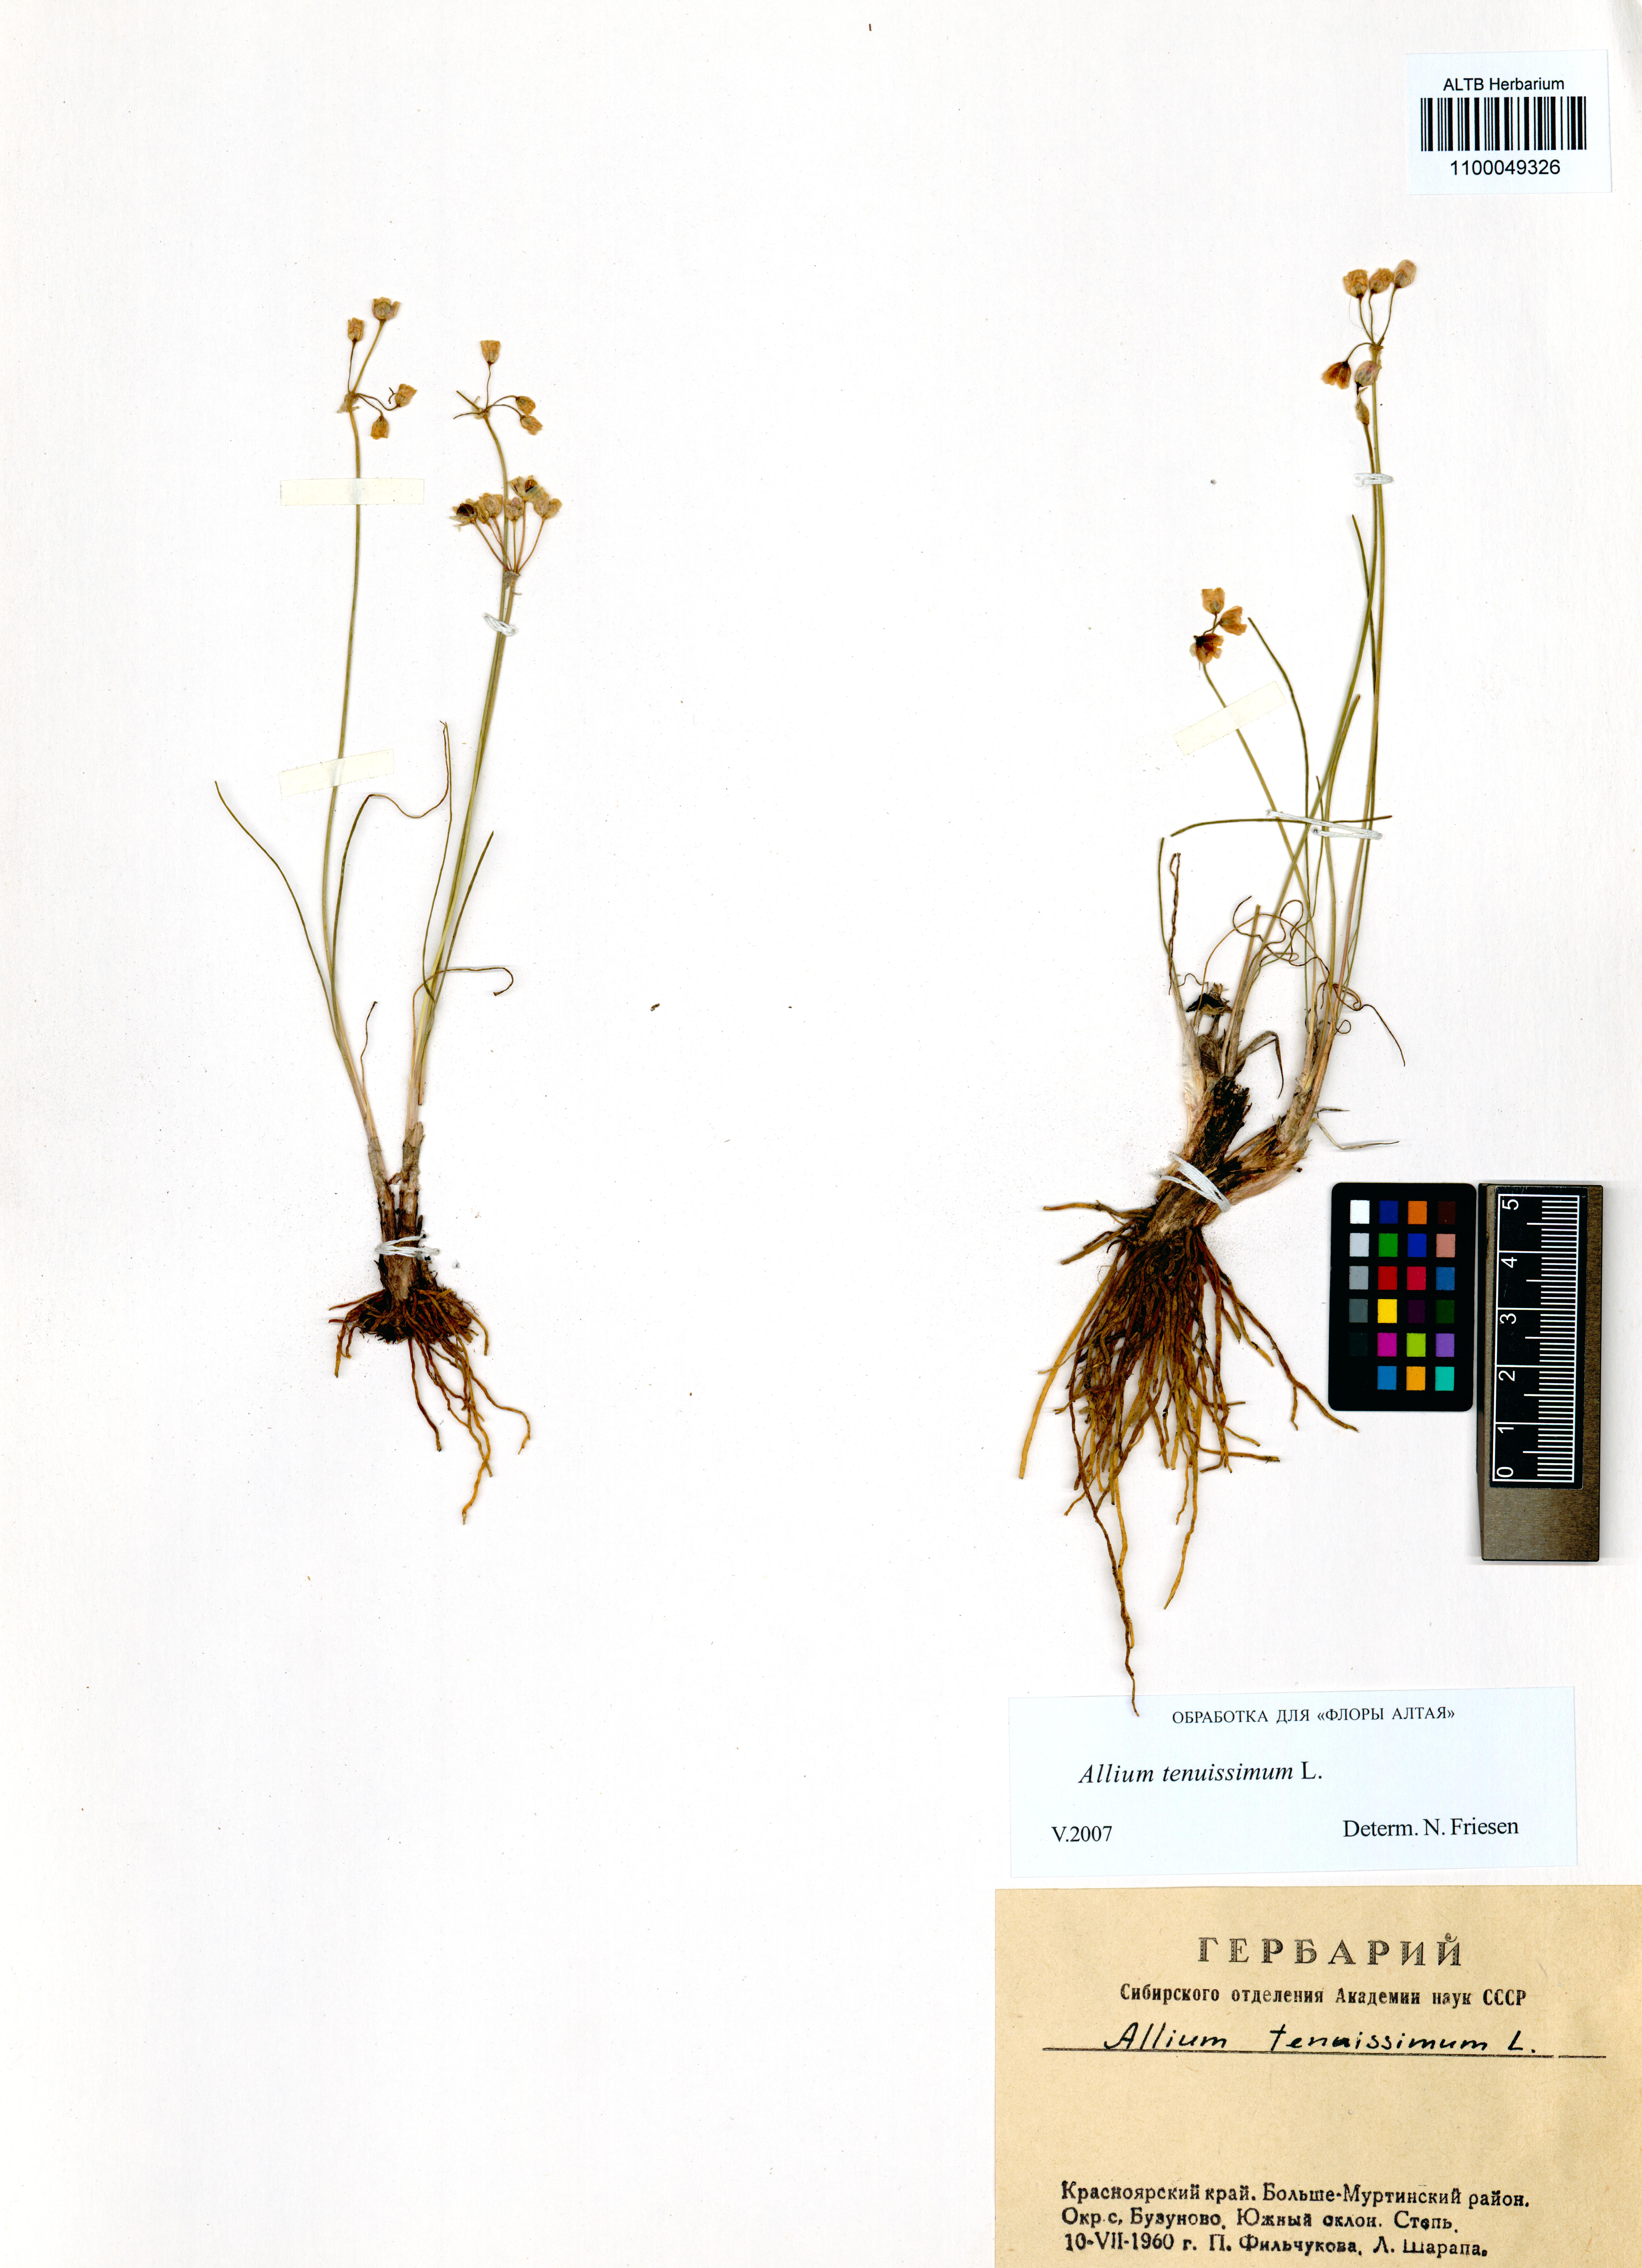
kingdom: Plantae
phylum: Tracheophyta
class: Liliopsida
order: Asparagales
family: Amaryllidaceae
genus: Allium
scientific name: Allium tenuissimum
